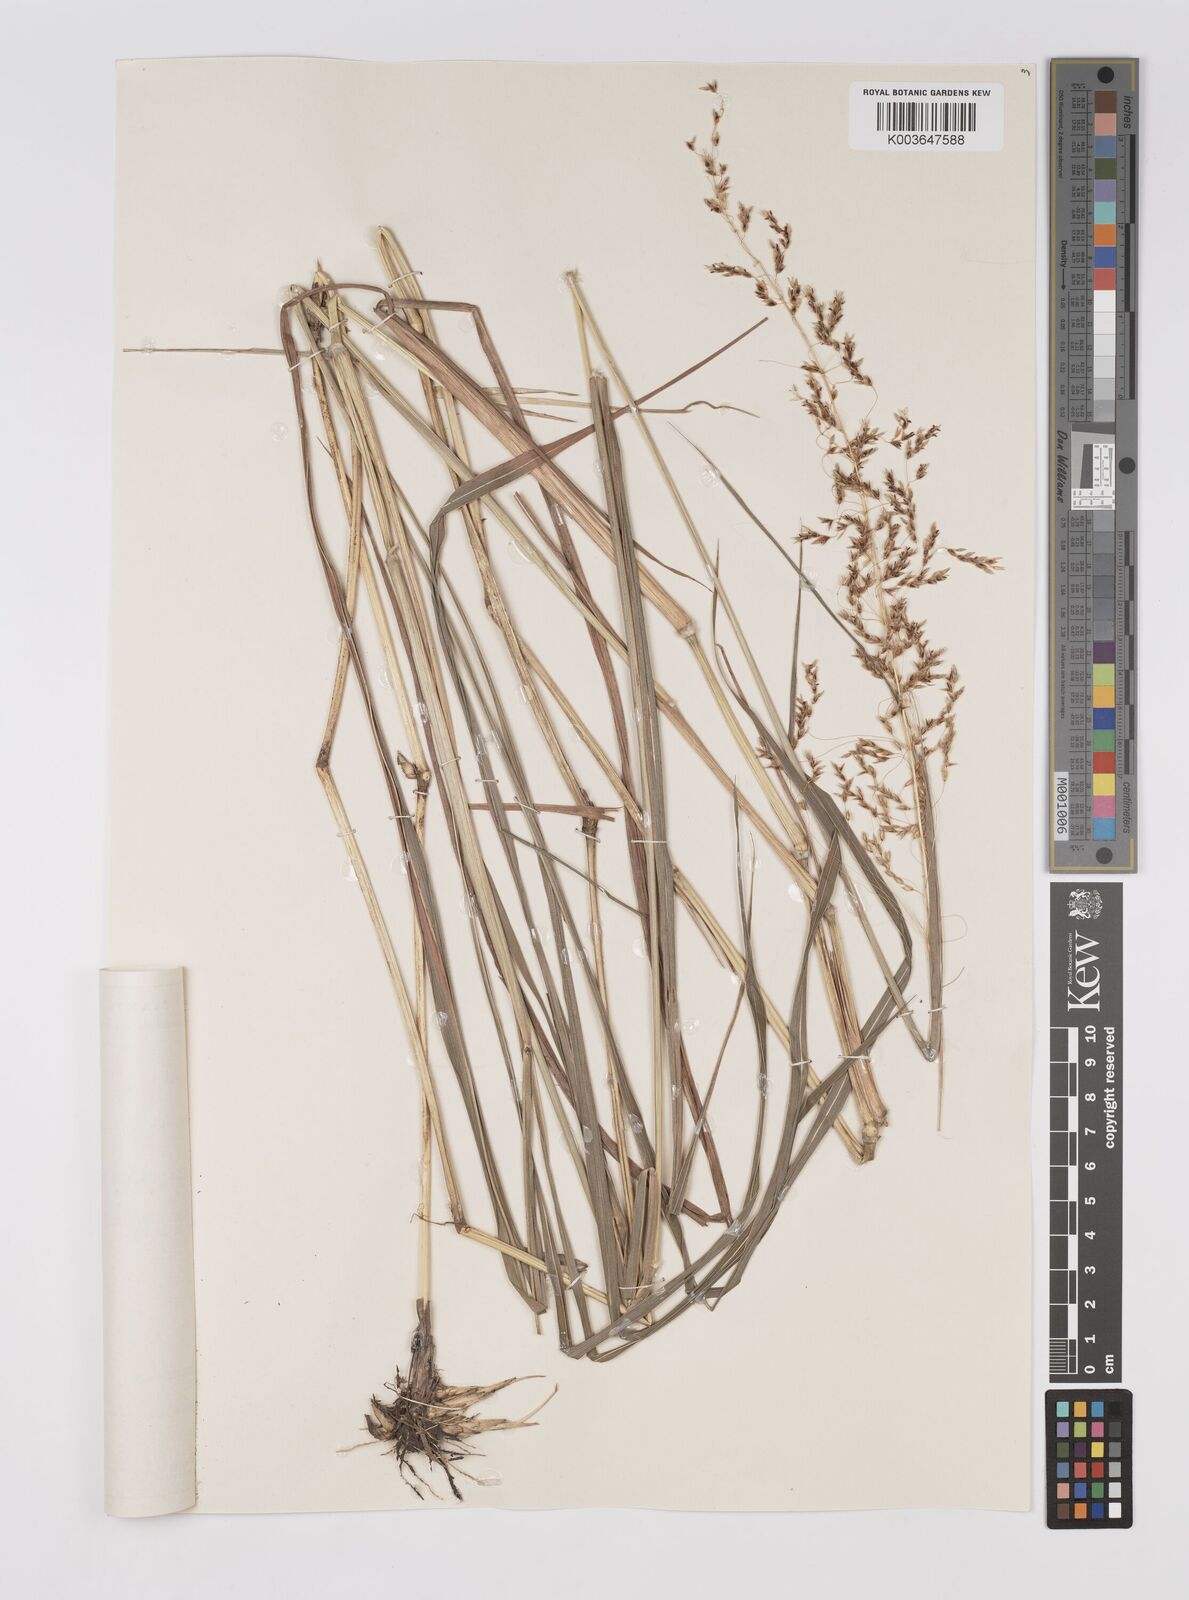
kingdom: Plantae
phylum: Tracheophyta
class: Liliopsida
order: Poales
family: Poaceae
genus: Sorghum
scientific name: Sorghum nitidum
